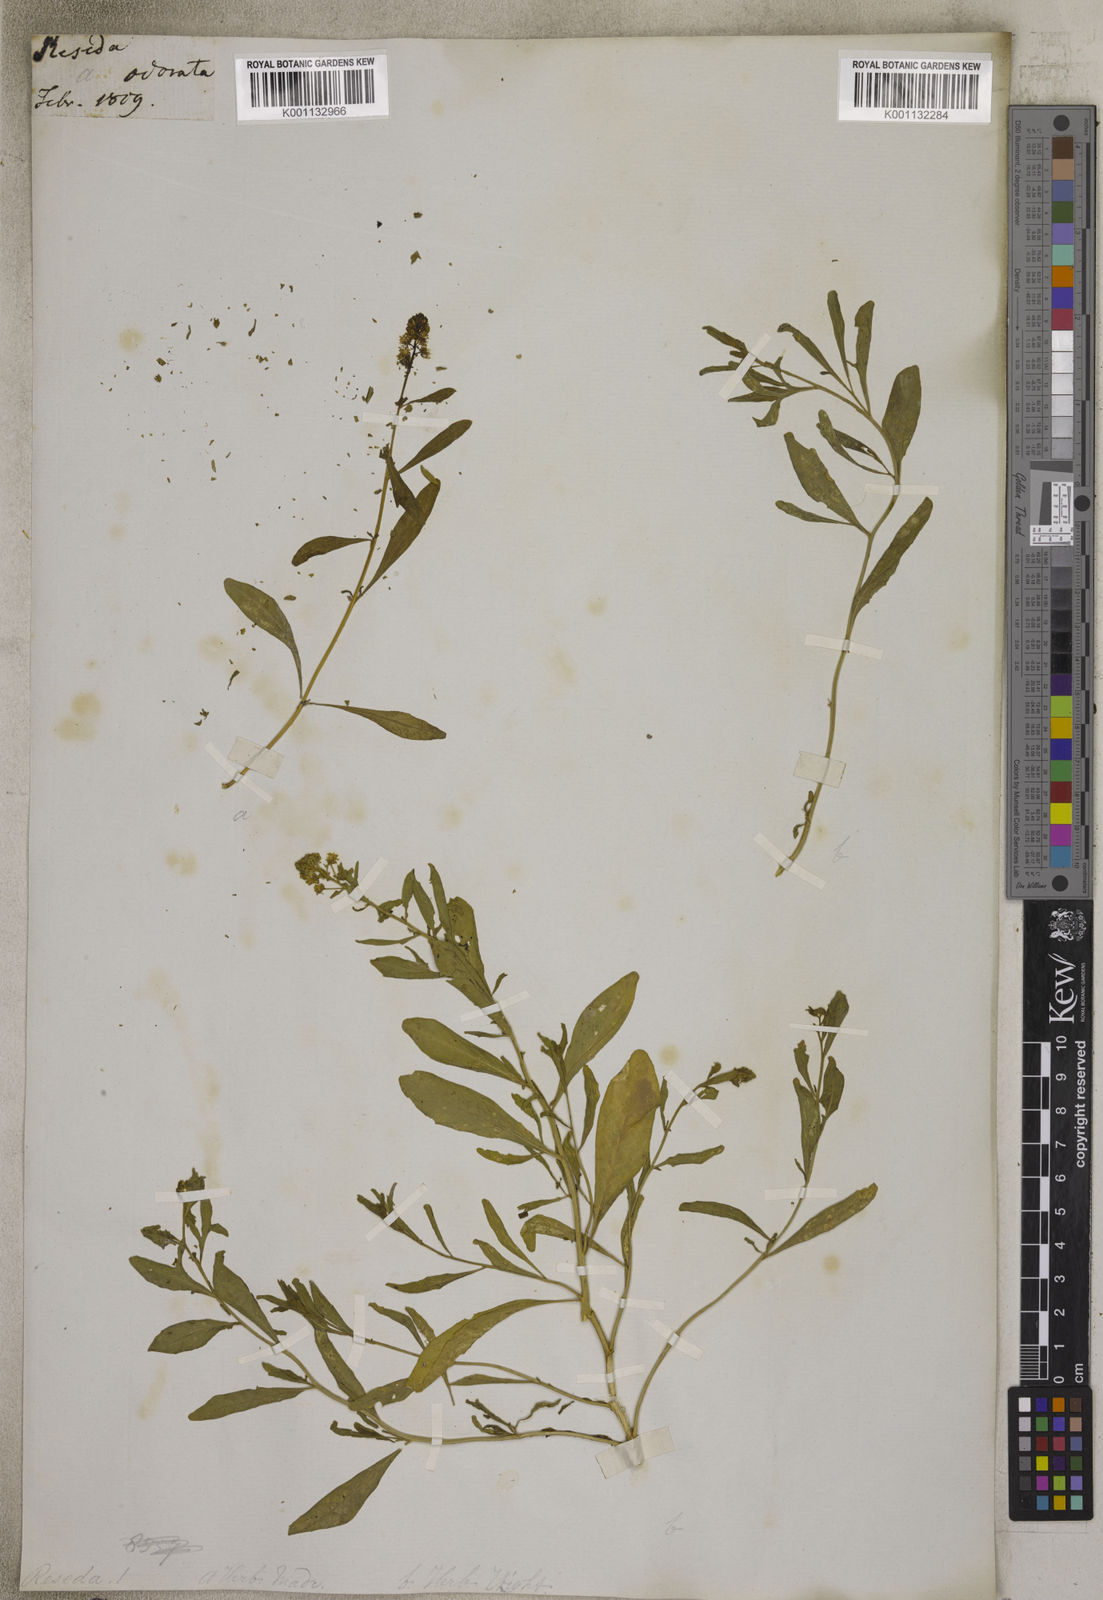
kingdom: Plantae
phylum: Tracheophyta
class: Magnoliopsida
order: Brassicales
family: Resedaceae
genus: Reseda
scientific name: Reseda
